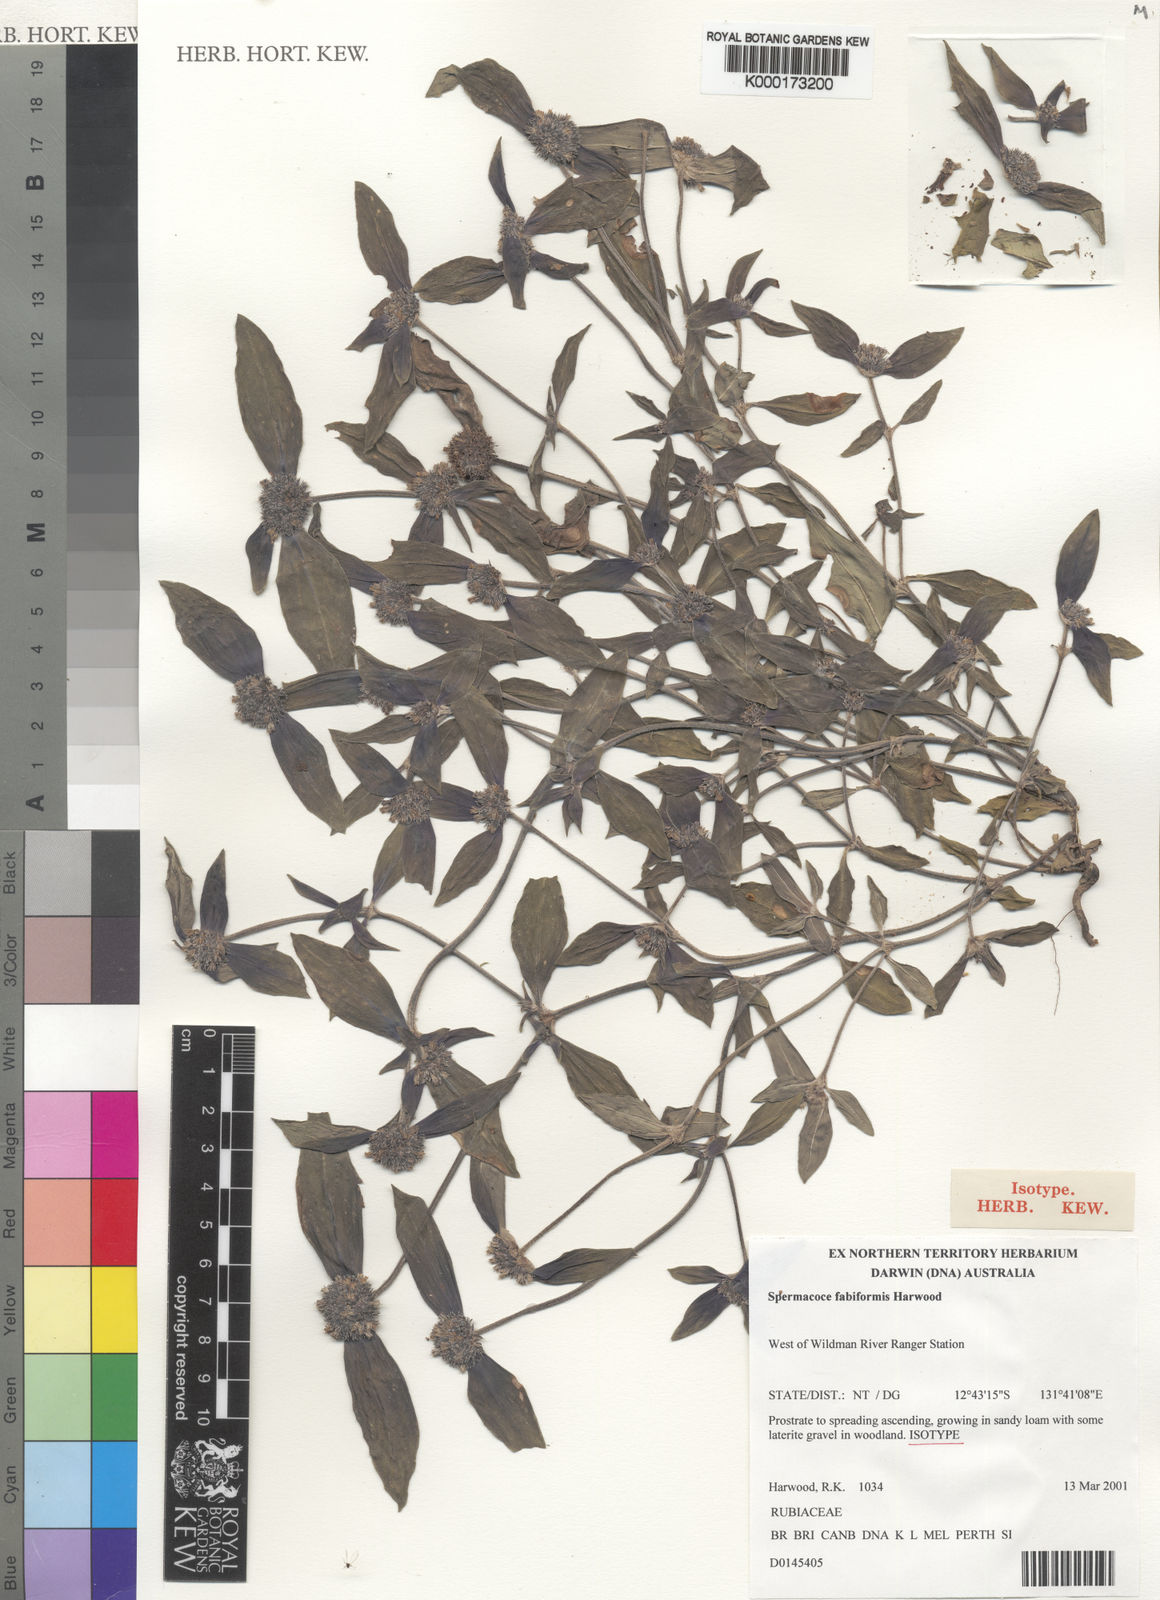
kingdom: Plantae
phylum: Tracheophyta
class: Magnoliopsida
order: Gentianales
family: Rubiaceae
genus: Spermacoce
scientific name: Spermacoce fabiformis
